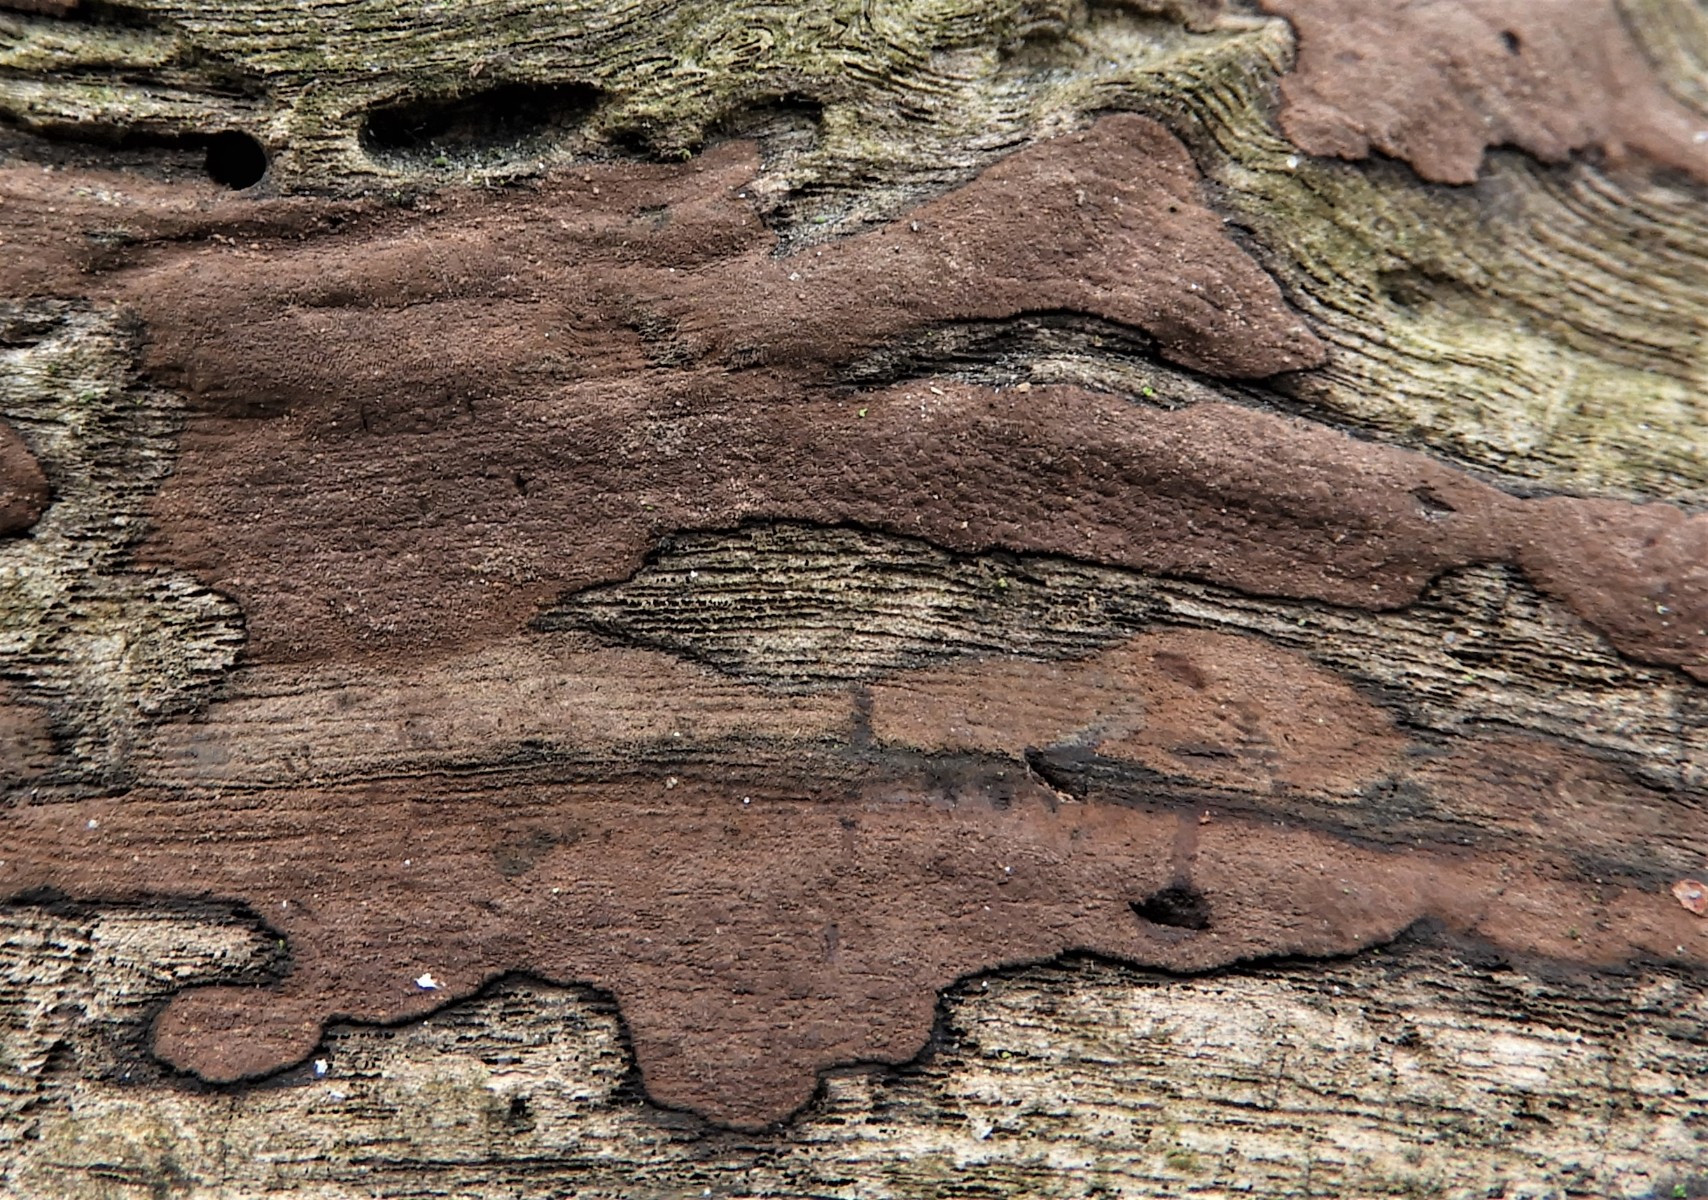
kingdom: Fungi
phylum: Ascomycota
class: Sordariomycetes
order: Xylariales
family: Hypoxylaceae
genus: Hypoxylon
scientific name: Hypoxylon petriniae
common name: nedsænket kulbær
